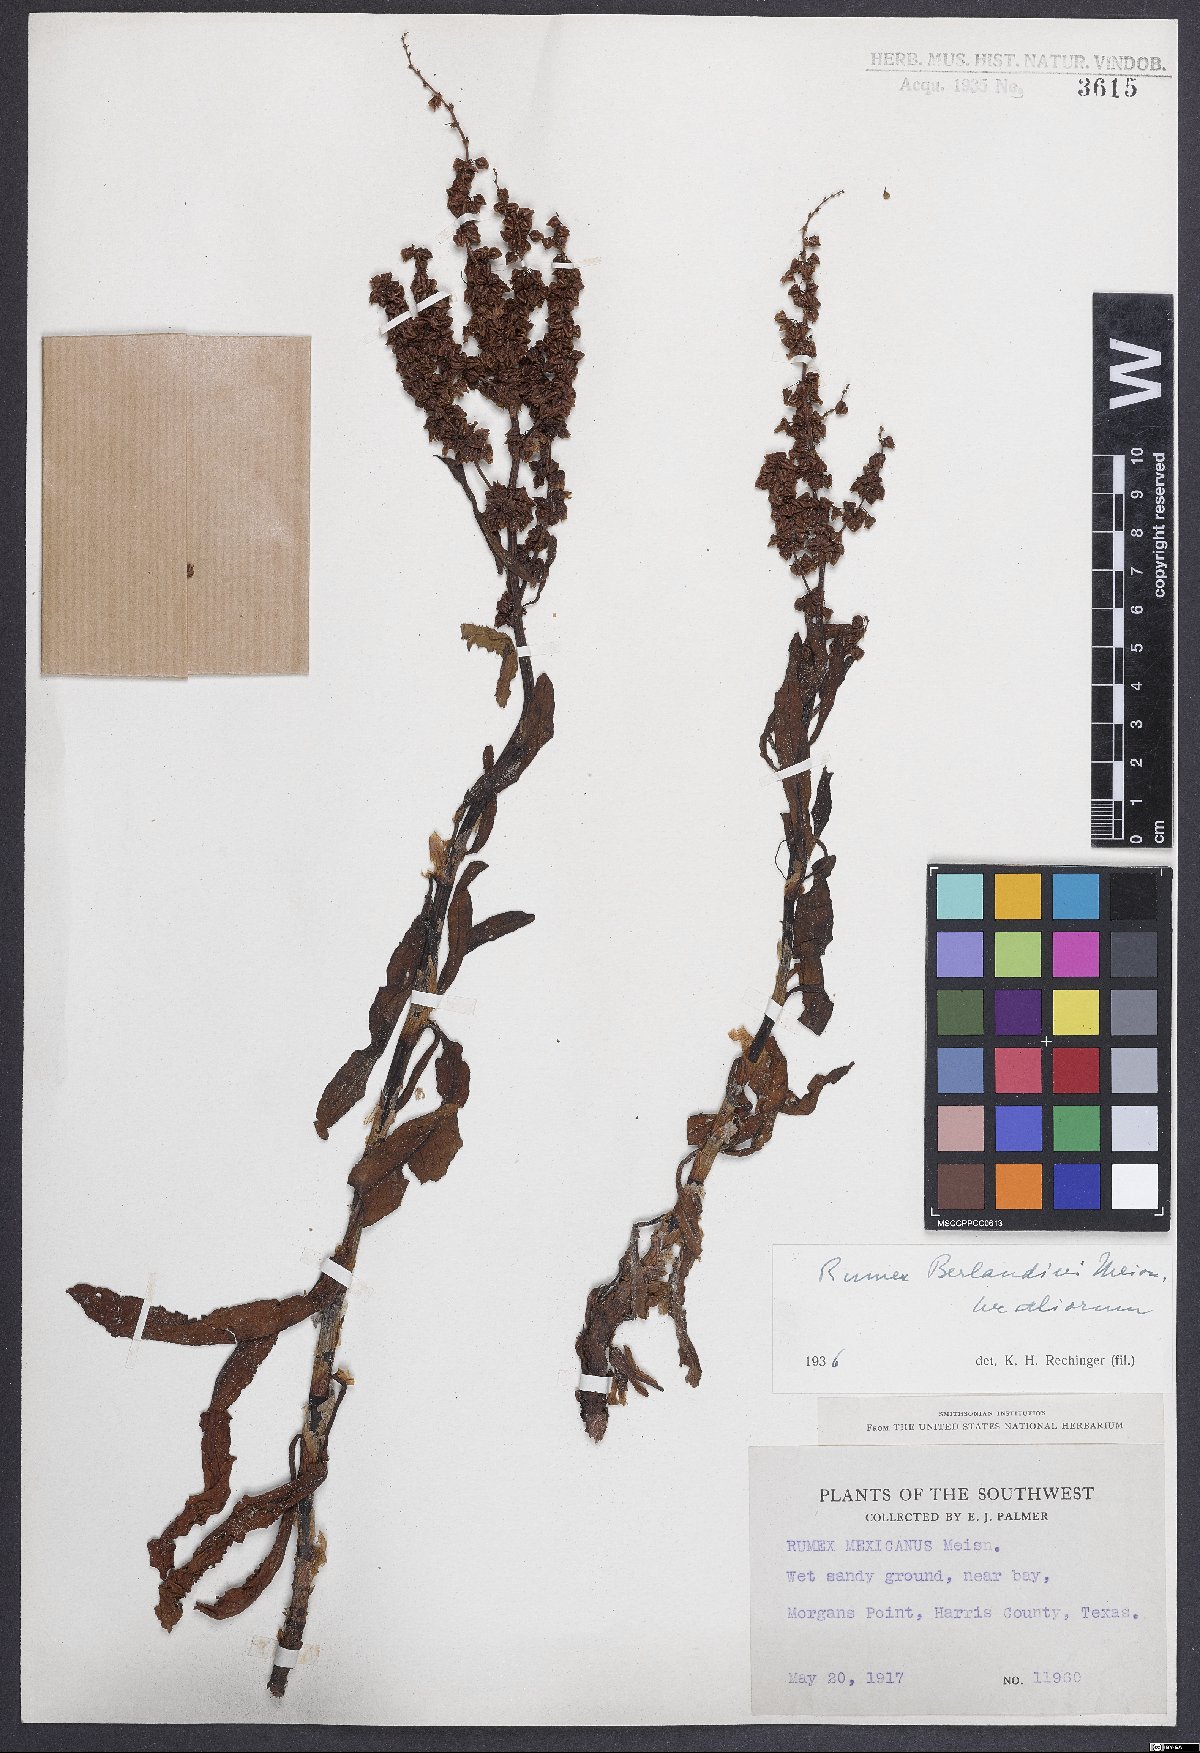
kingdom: Plantae
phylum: Tracheophyta
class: Magnoliopsida
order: Caryophyllales
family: Polygonaceae
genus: Rumex
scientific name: Rumex chrysocarpus
